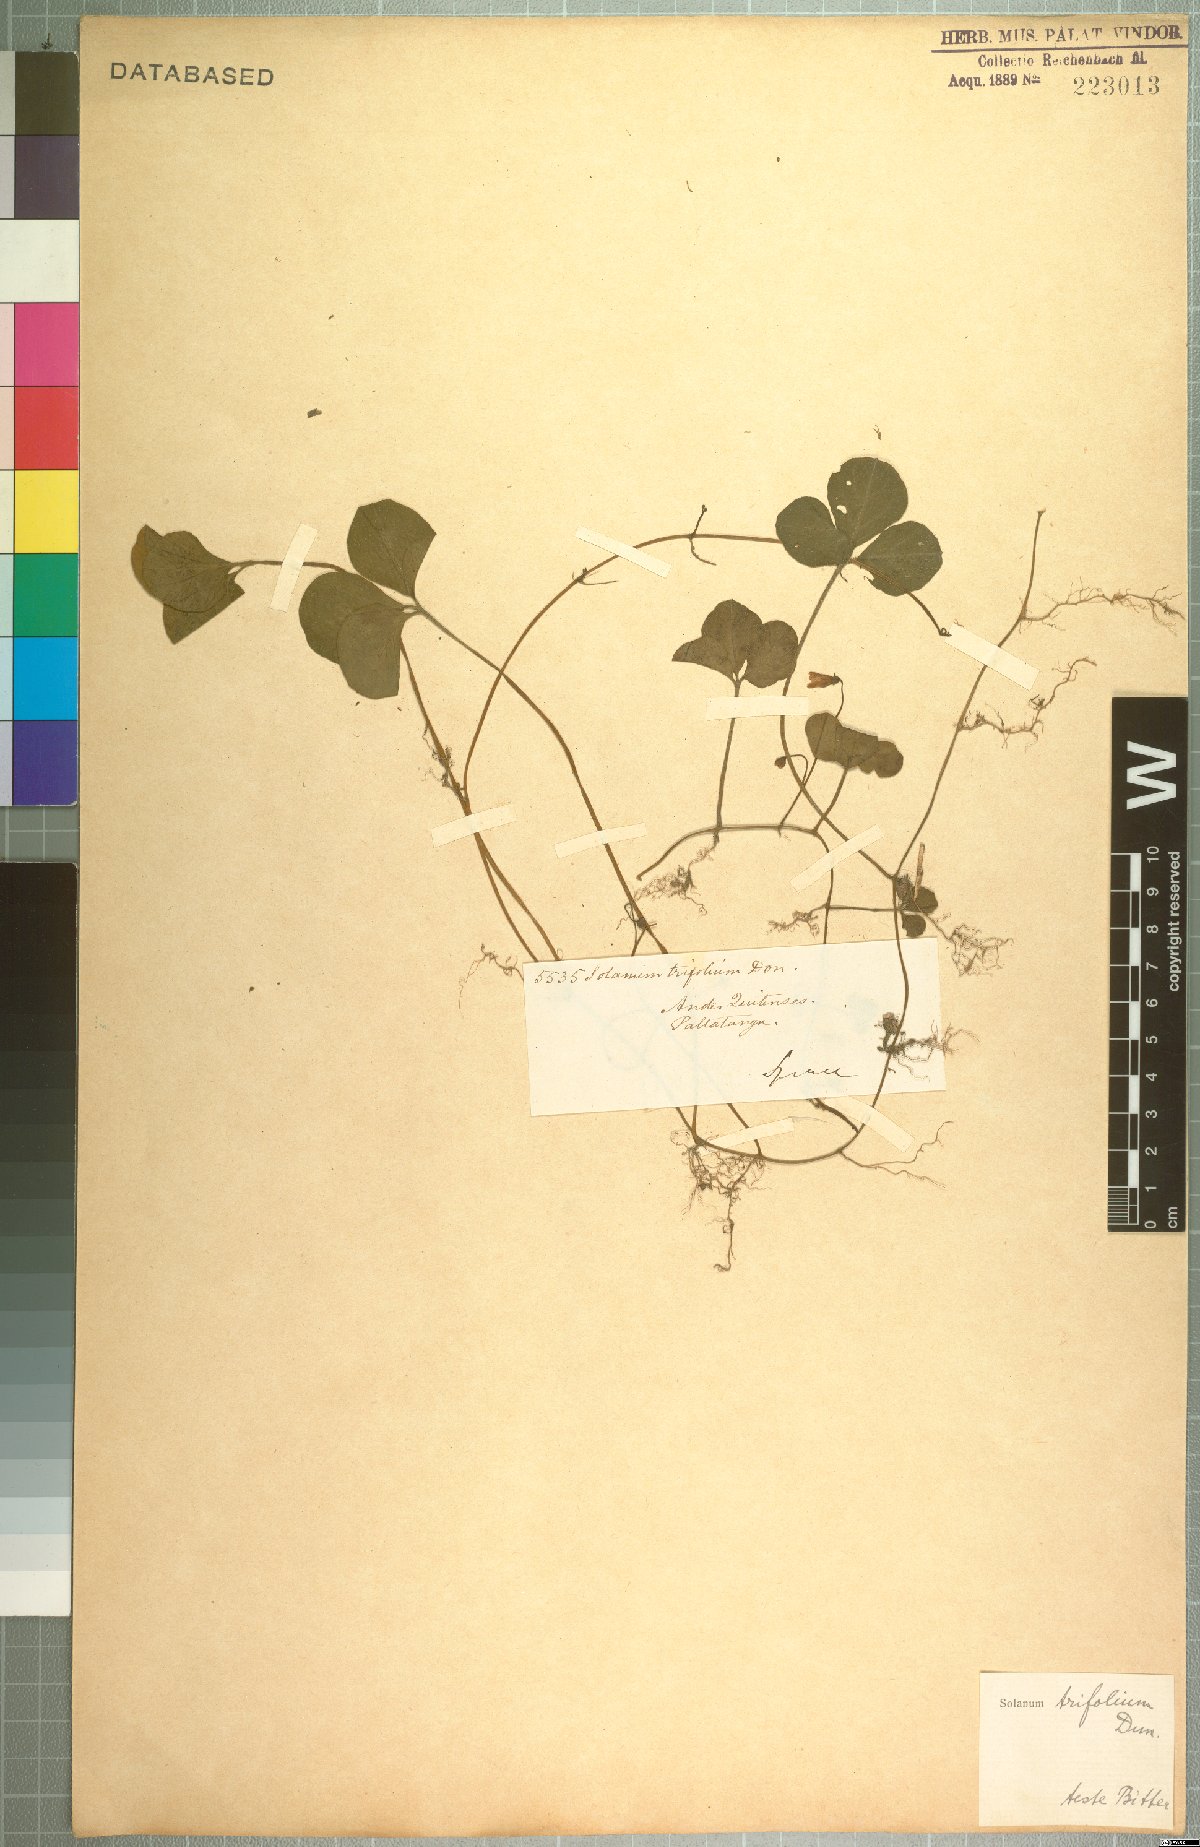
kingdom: Plantae
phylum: Tracheophyta
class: Magnoliopsida
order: Solanales
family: Solanaceae
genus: Solanum
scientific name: Solanum trifolium
